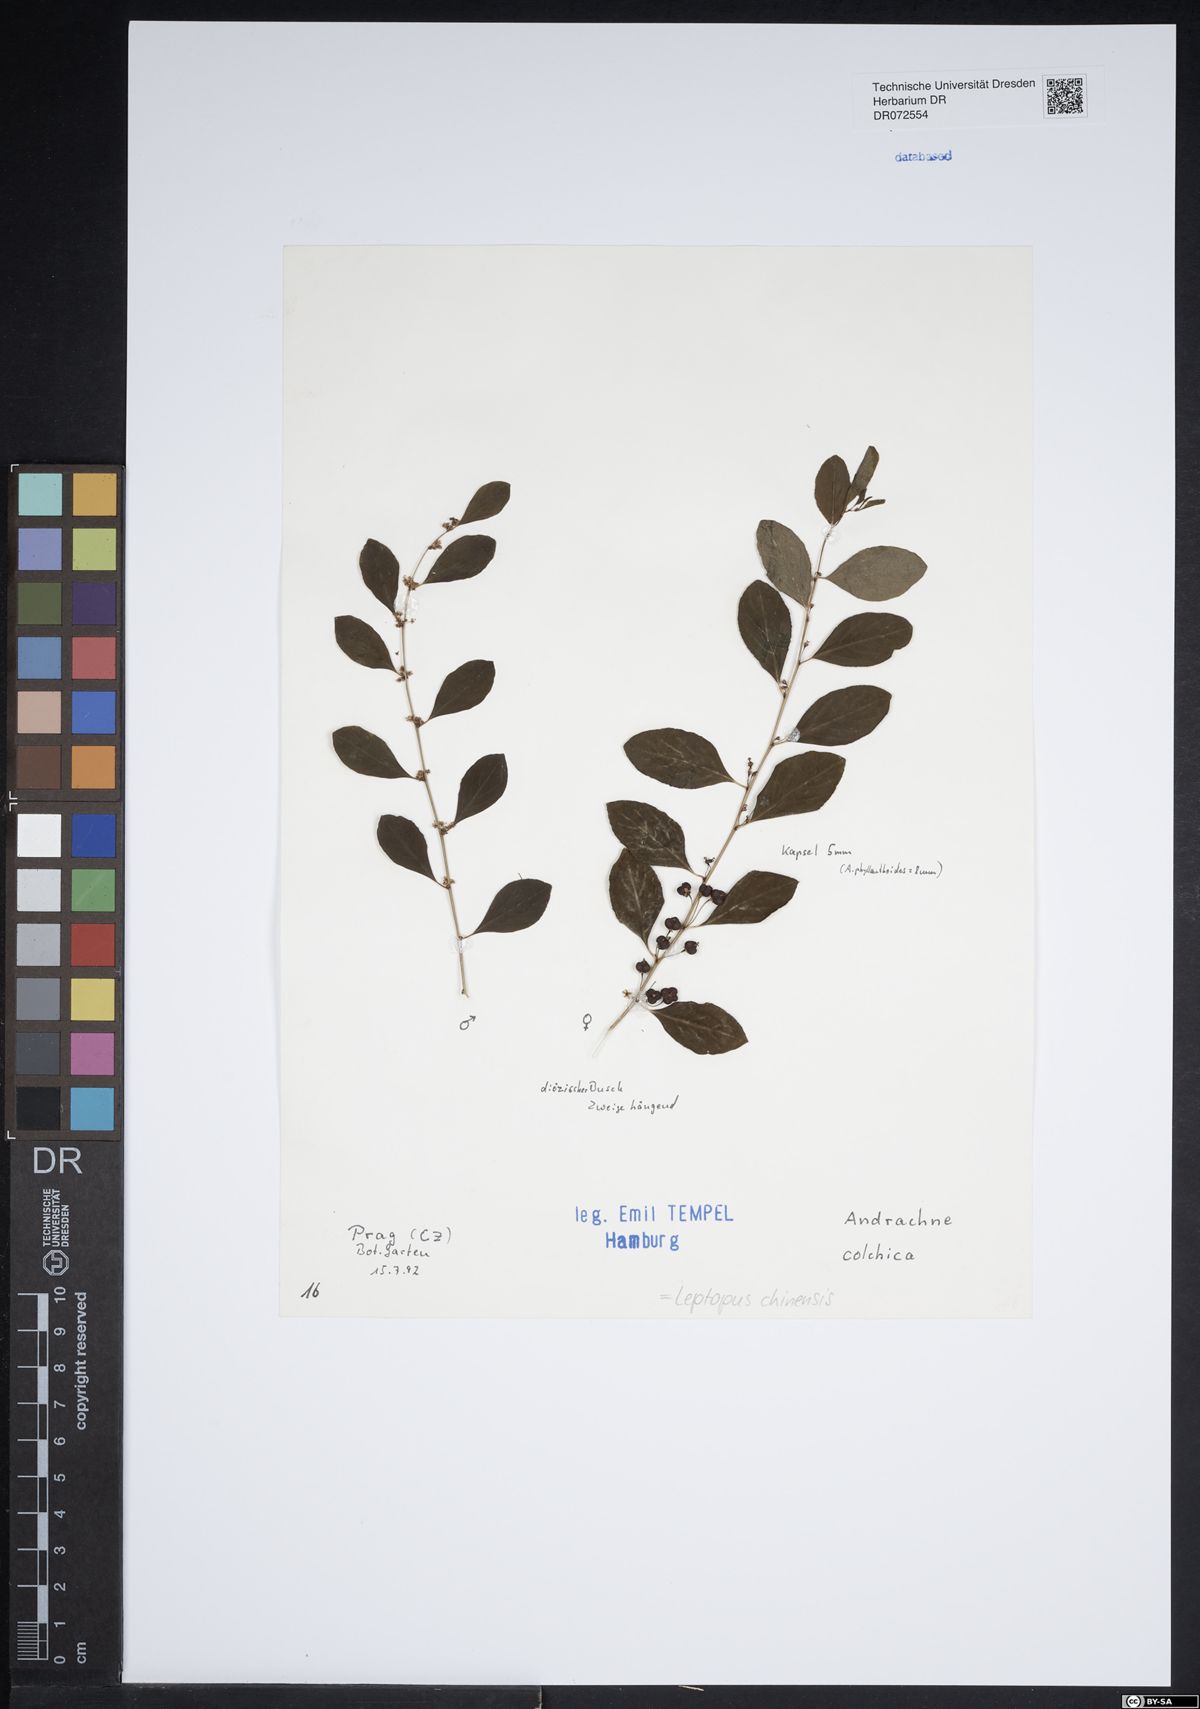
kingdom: Plantae
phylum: Tracheophyta
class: Magnoliopsida
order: Malpighiales
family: Phyllanthaceae
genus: Leptopus
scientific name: Leptopus chinensis
